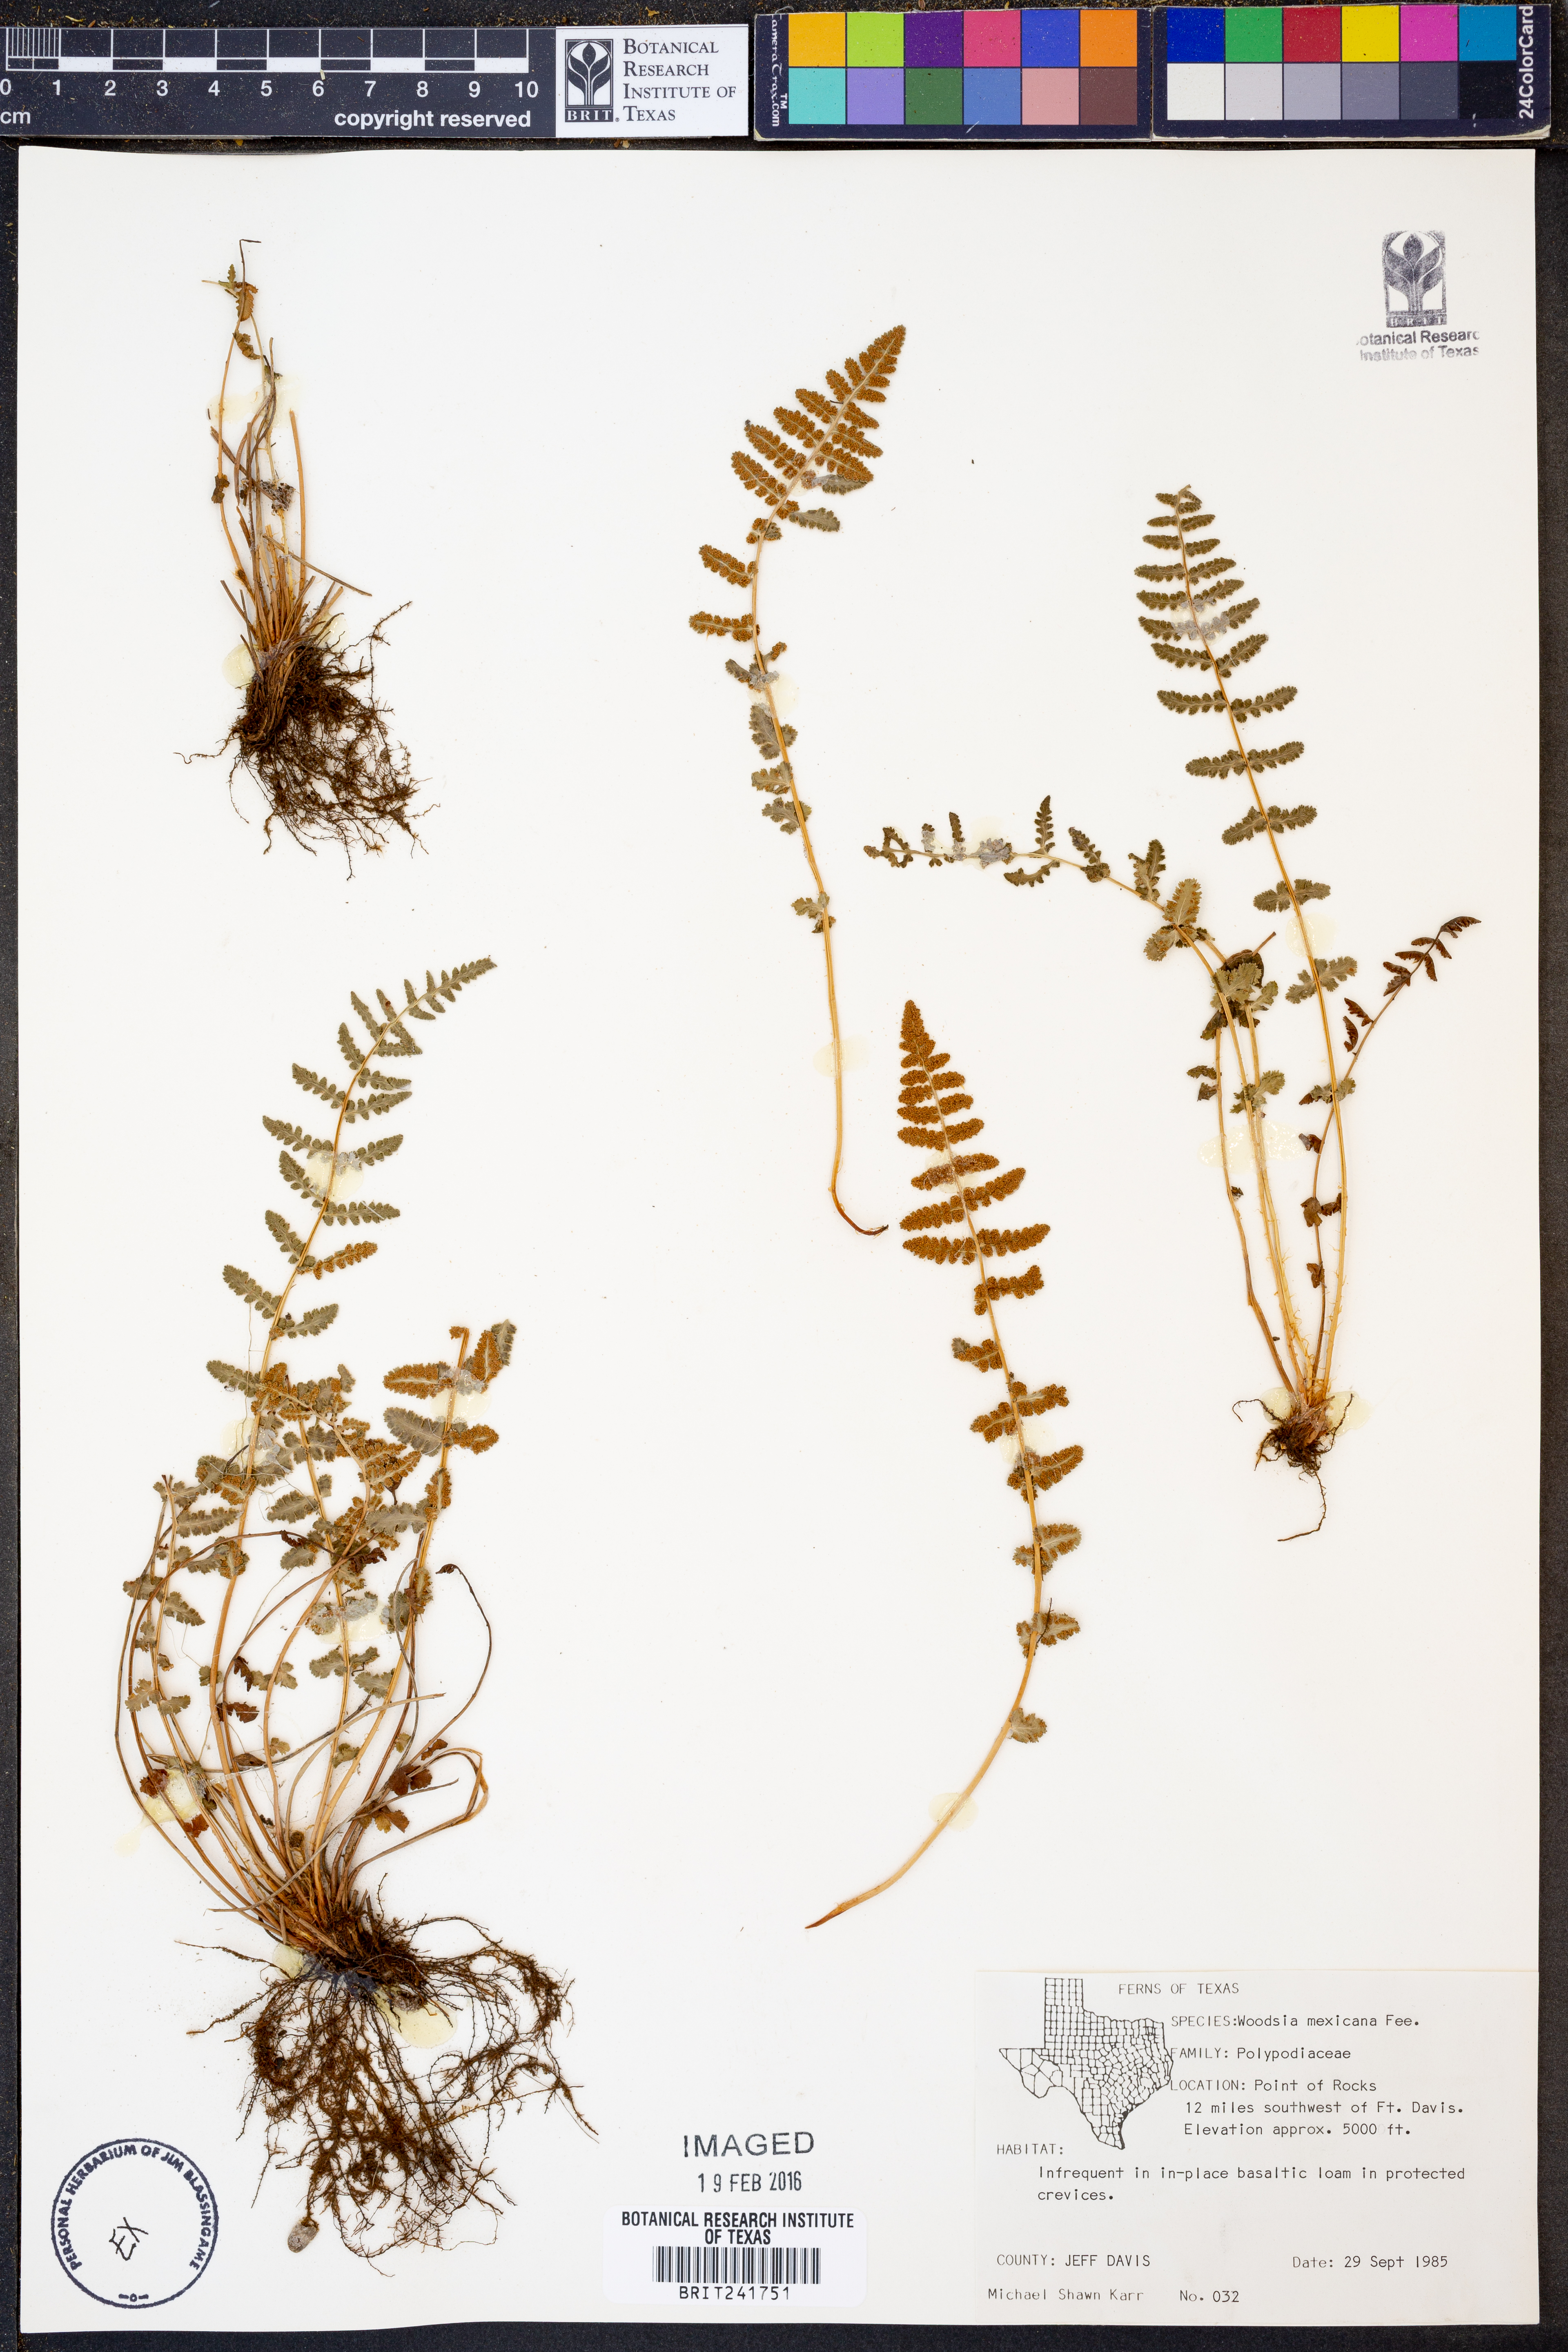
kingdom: Plantae
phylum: Tracheophyta
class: Polypodiopsida
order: Polypodiales
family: Woodsiaceae
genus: Physematium
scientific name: Physematium mexicanum
